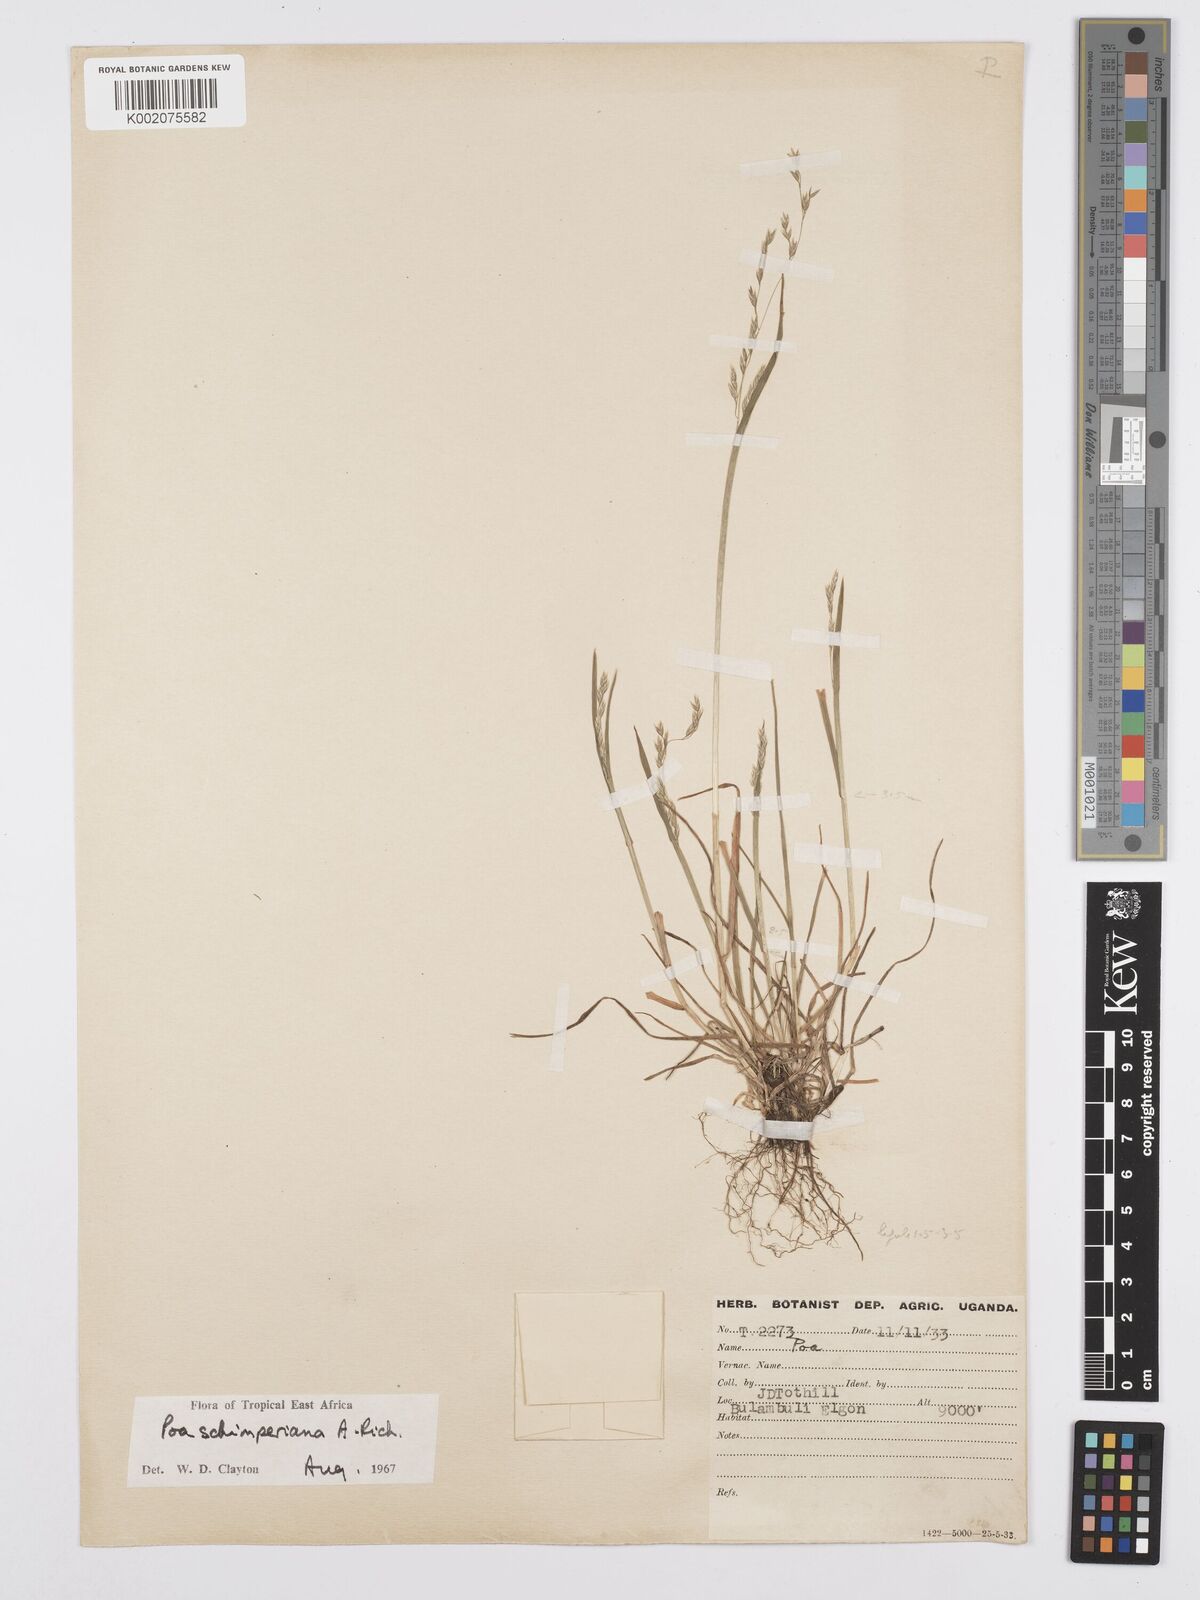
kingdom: Plantae
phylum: Tracheophyta
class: Liliopsida
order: Poales
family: Poaceae
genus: Poa
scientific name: Poa schimperiana
